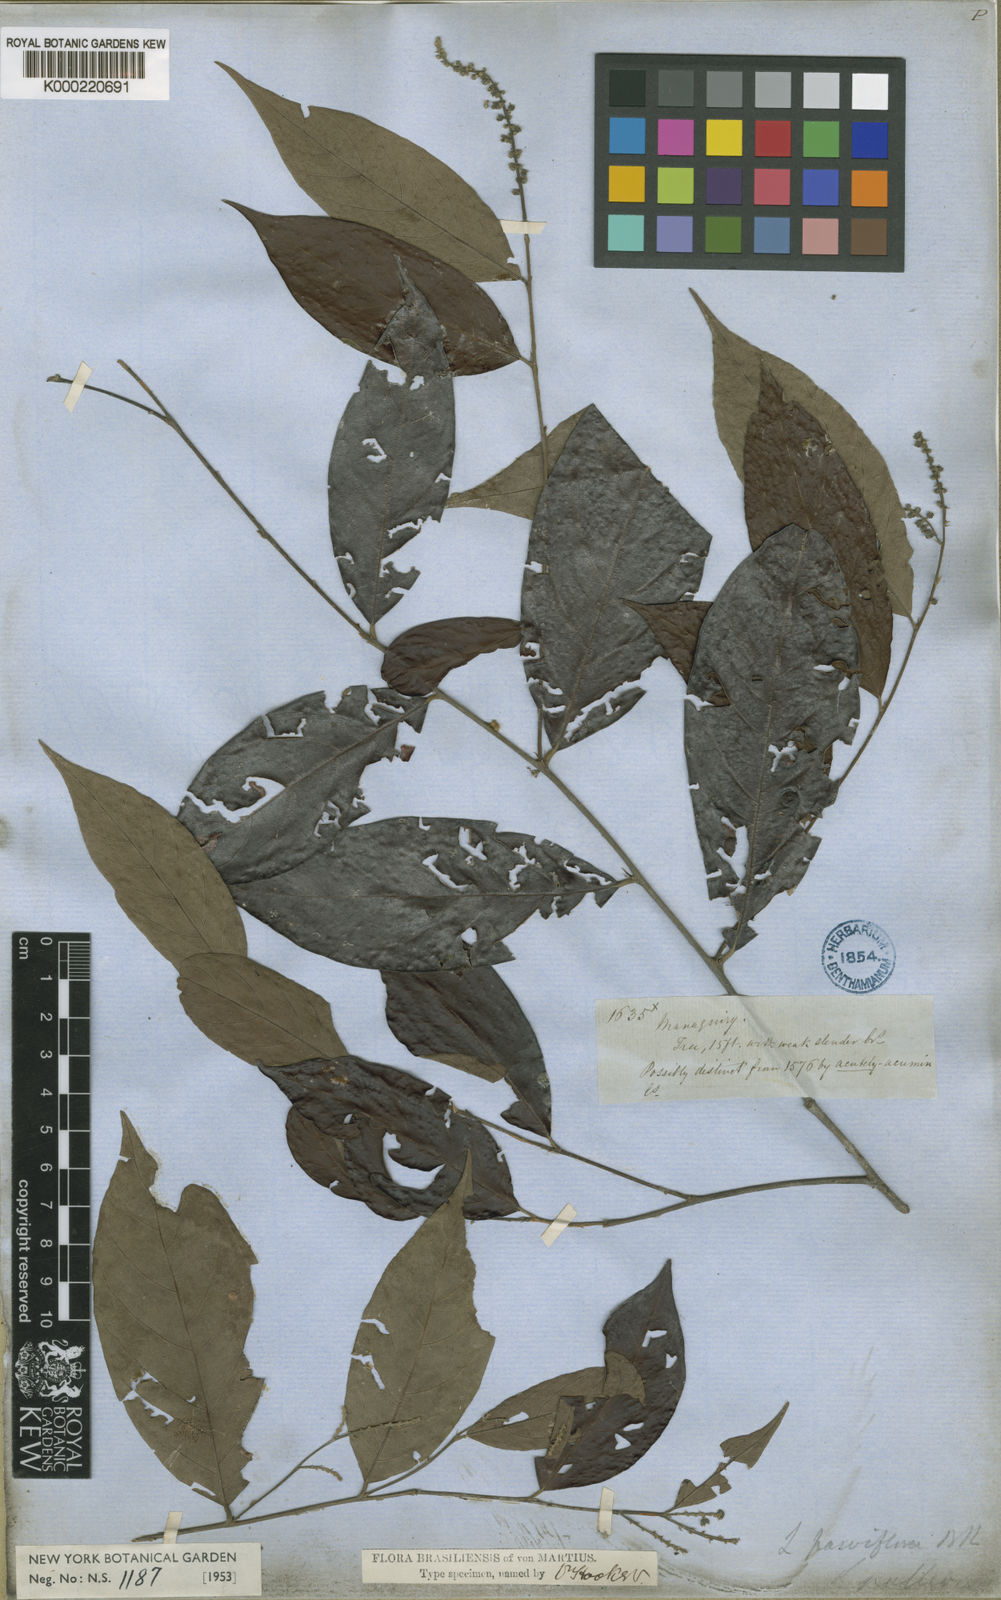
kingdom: Plantae
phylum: Tracheophyta
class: Magnoliopsida
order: Malpighiales
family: Chrysobalanaceae
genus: Licania
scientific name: Licania pallida
